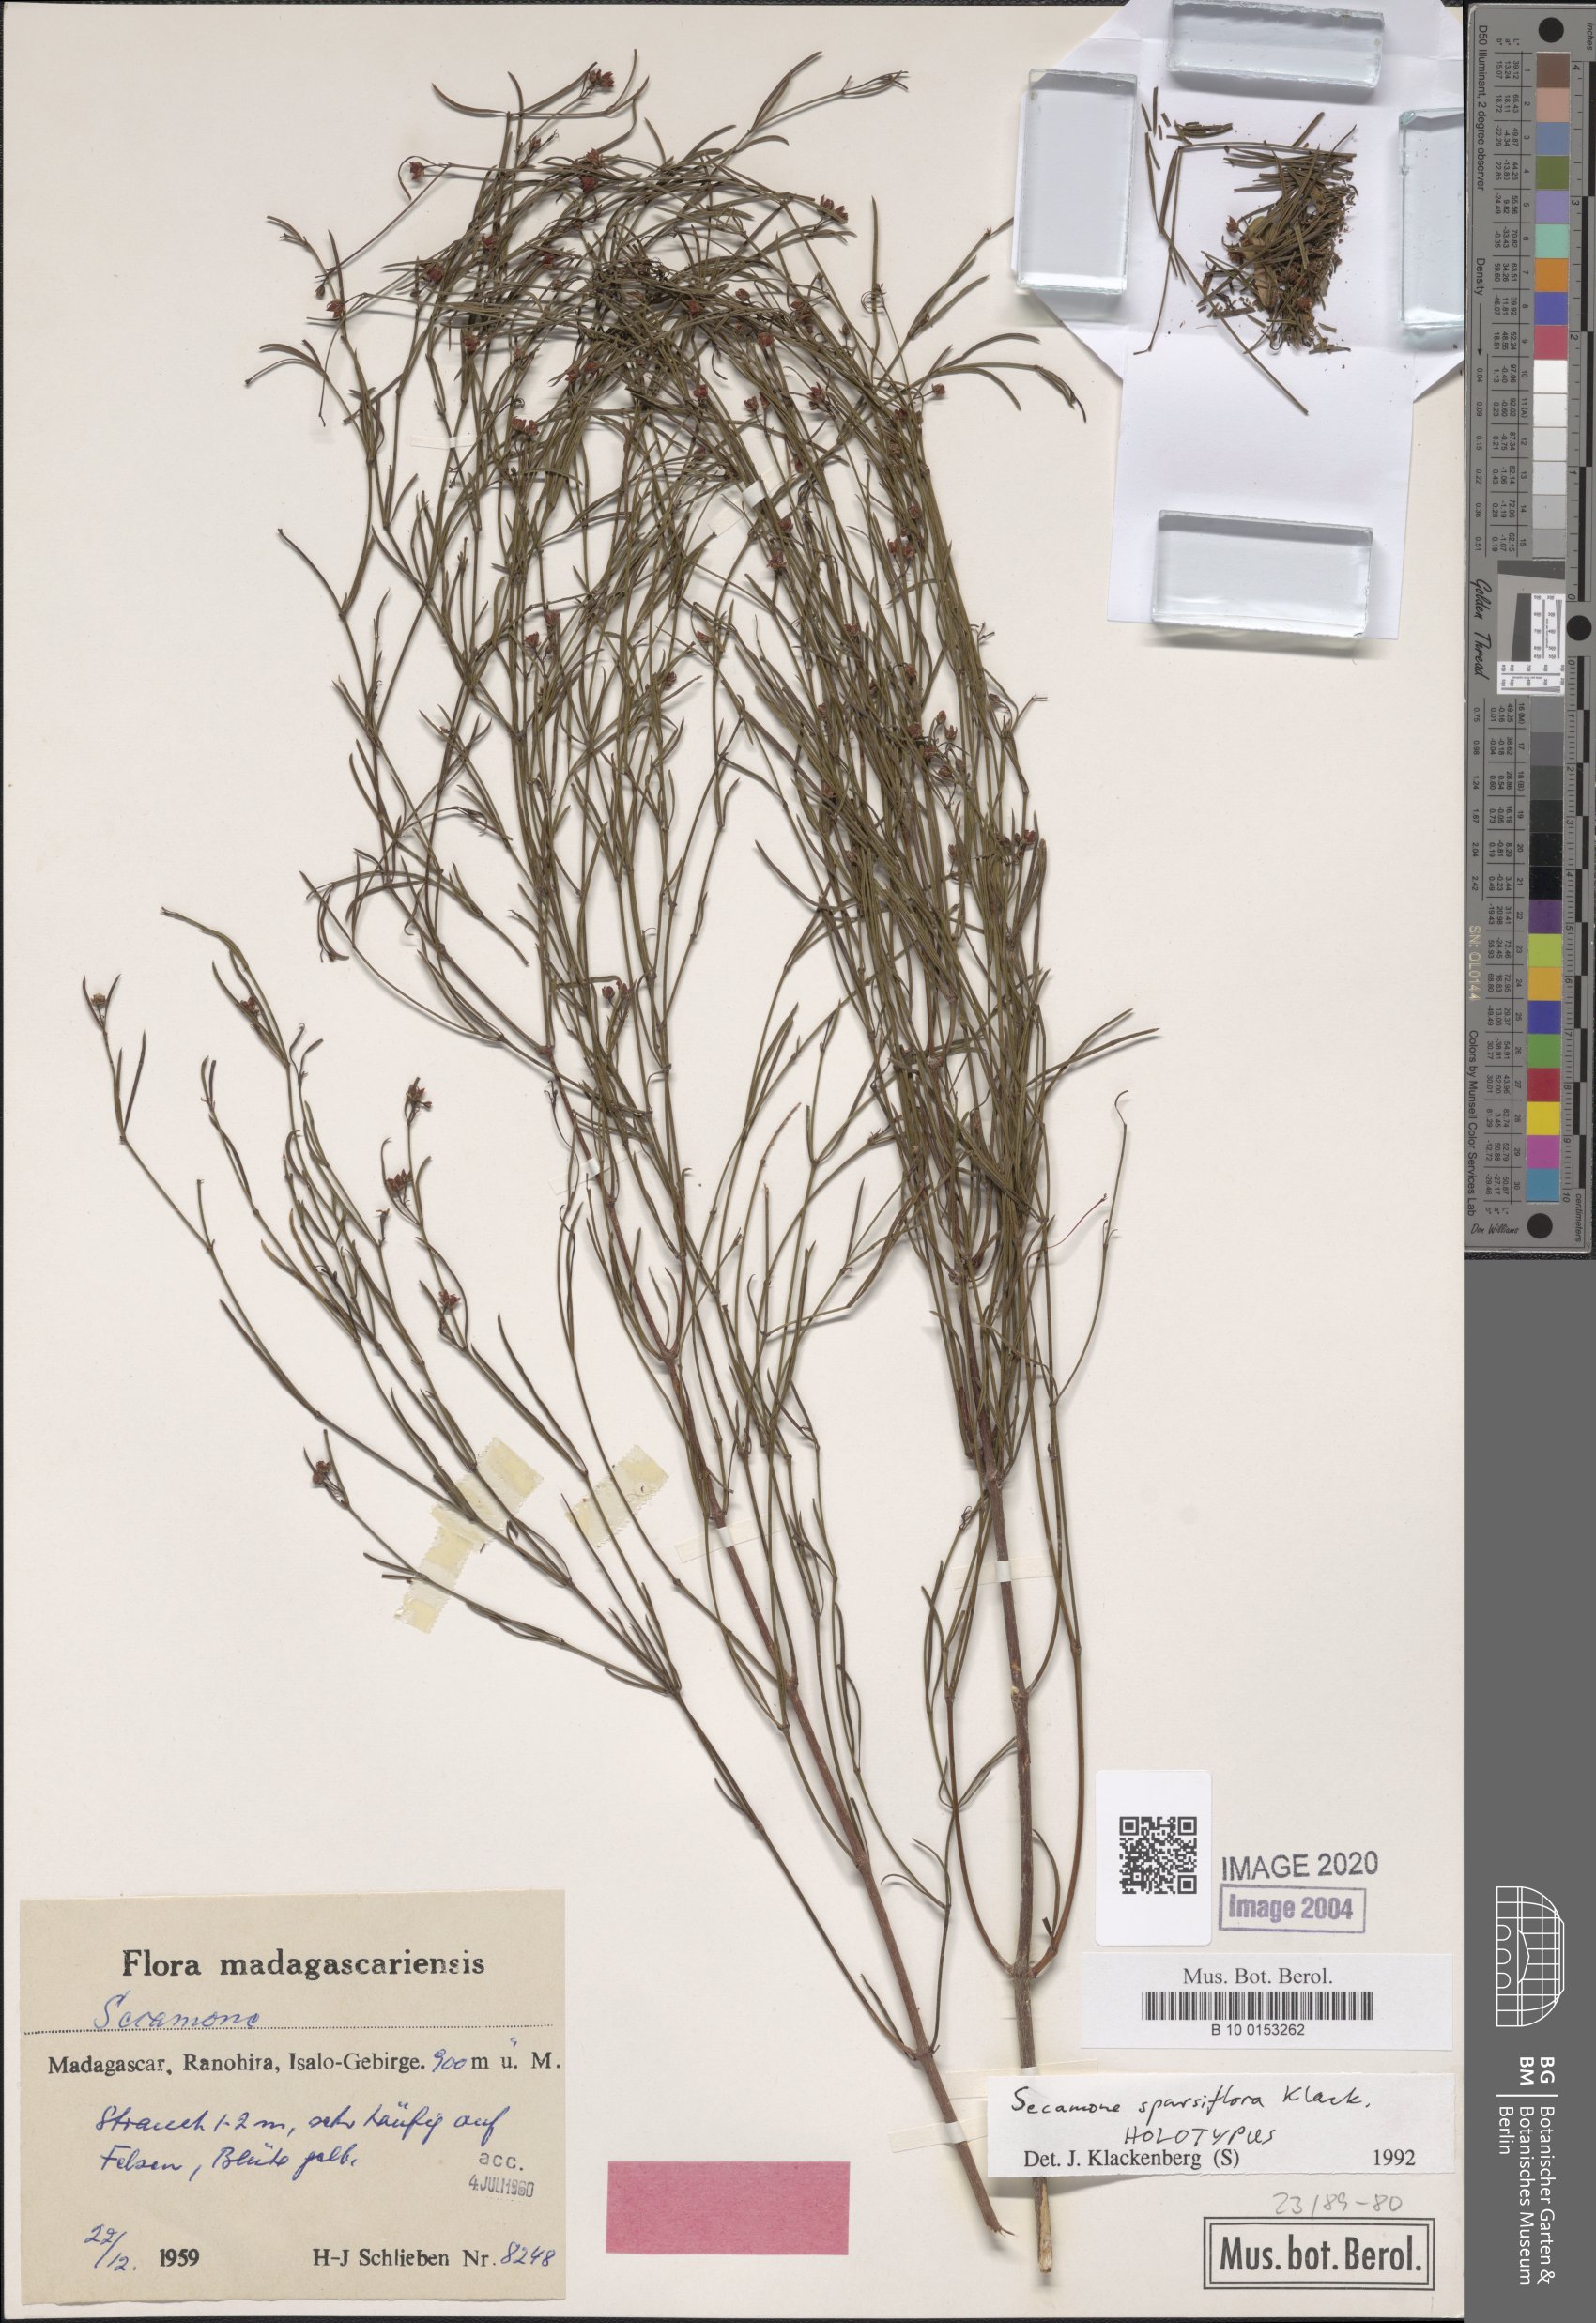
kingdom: Plantae
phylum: Tracheophyta
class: Magnoliopsida
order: Gentianales
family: Apocynaceae
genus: Secamone
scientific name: Secamone sparsiflora
